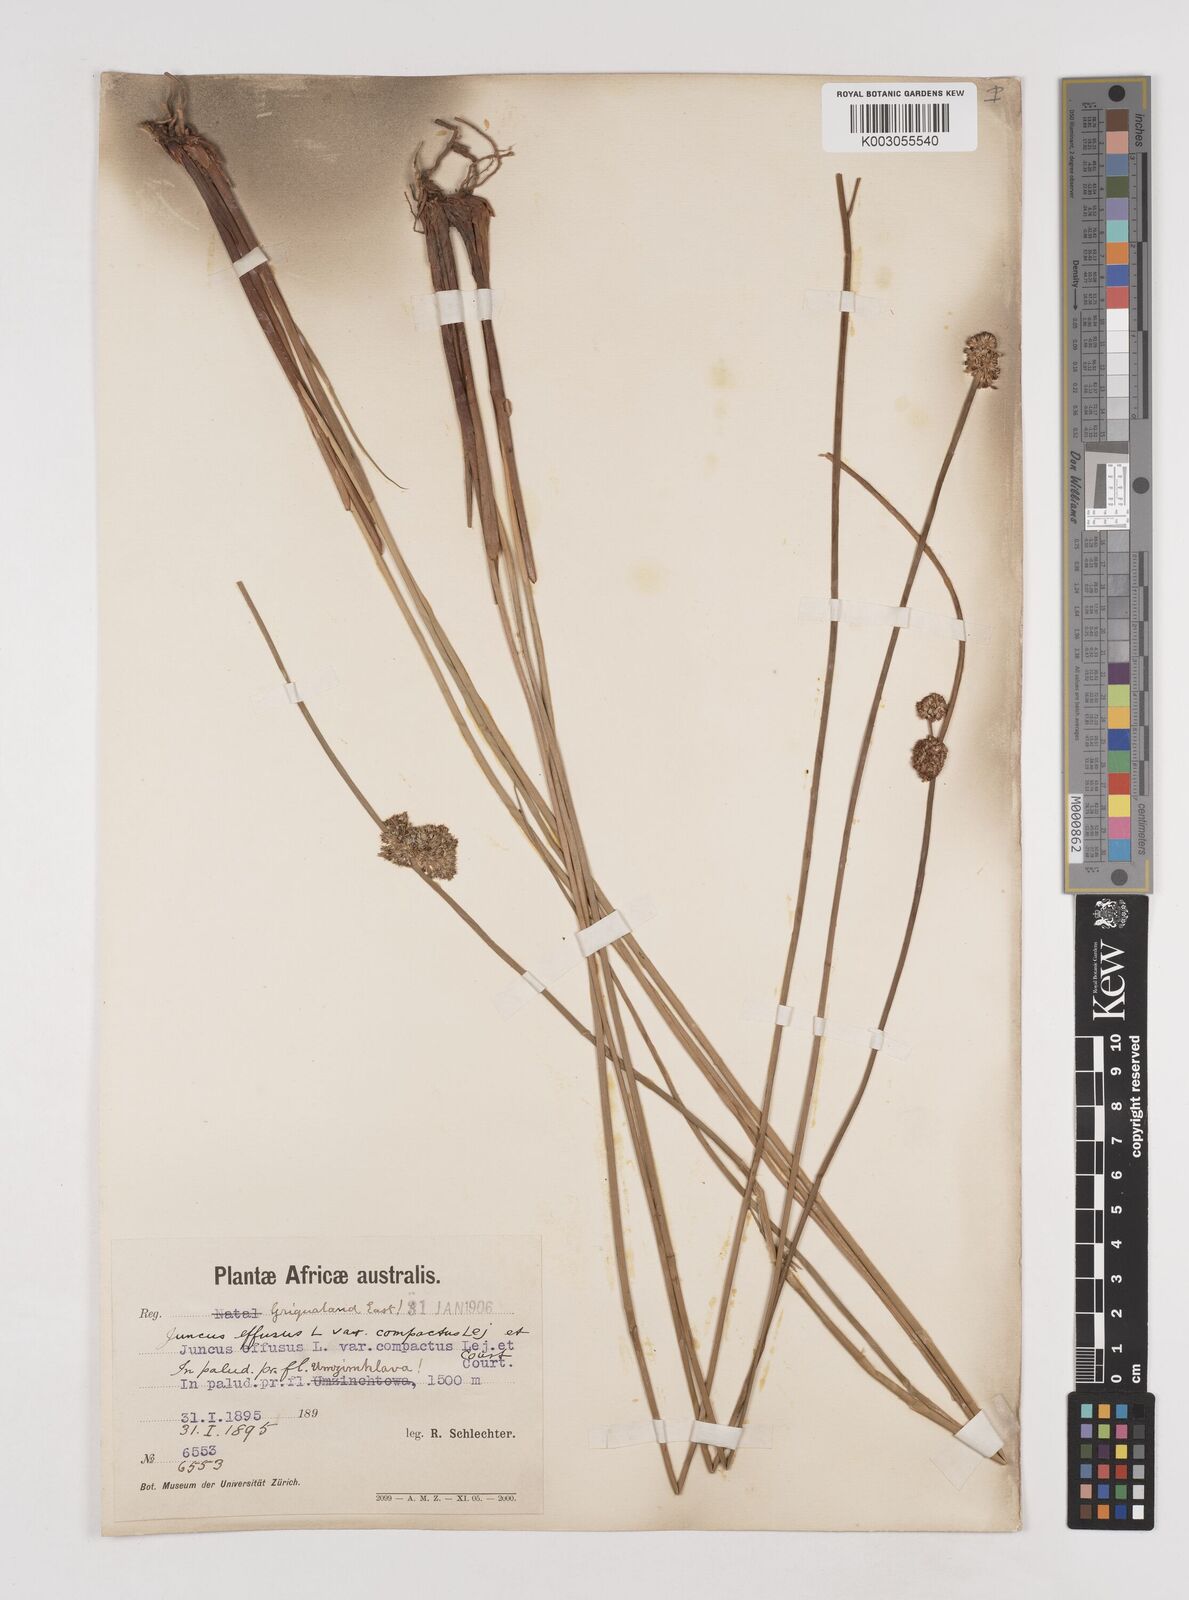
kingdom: Plantae
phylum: Tracheophyta
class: Liliopsida
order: Poales
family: Juncaceae
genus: Juncus
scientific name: Juncus effusus
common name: Soft rush
